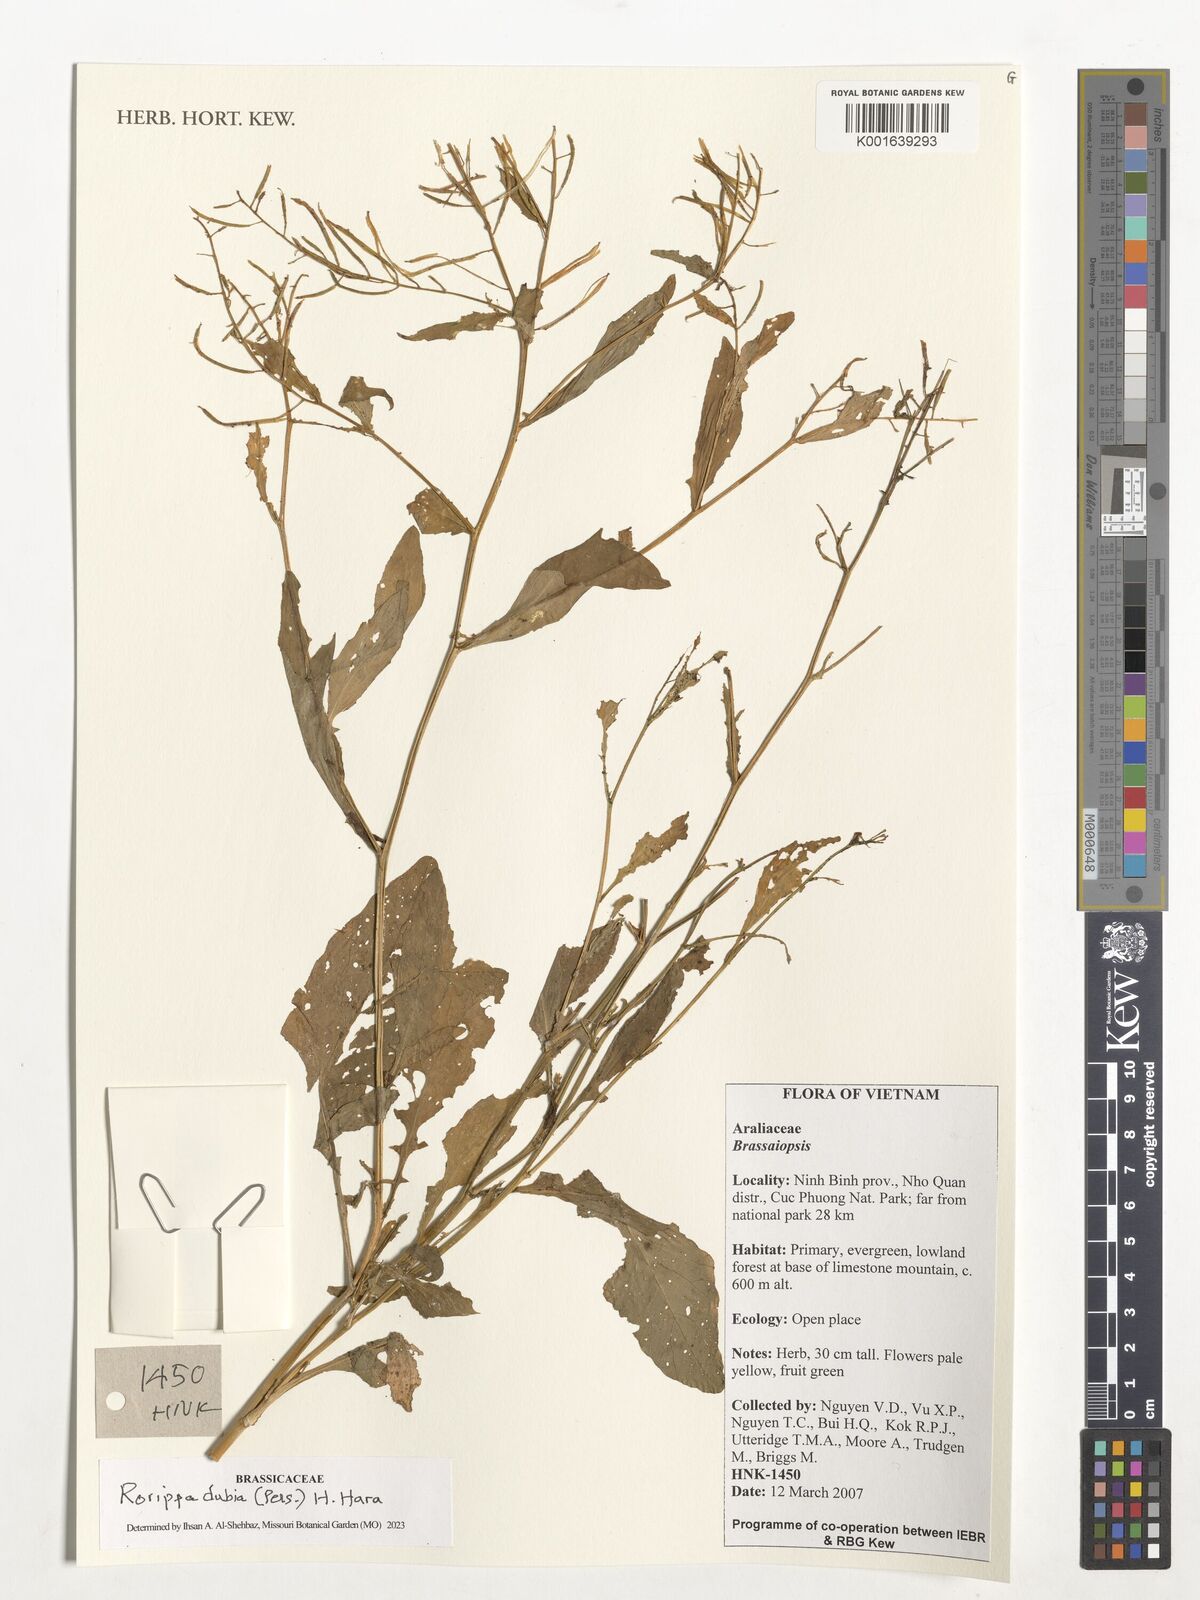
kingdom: Plantae
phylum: Tracheophyta
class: Magnoliopsida
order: Brassicales
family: Brassicaceae
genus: Rorippa
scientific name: Rorippa dubia
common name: Variableleaf yellowcress
